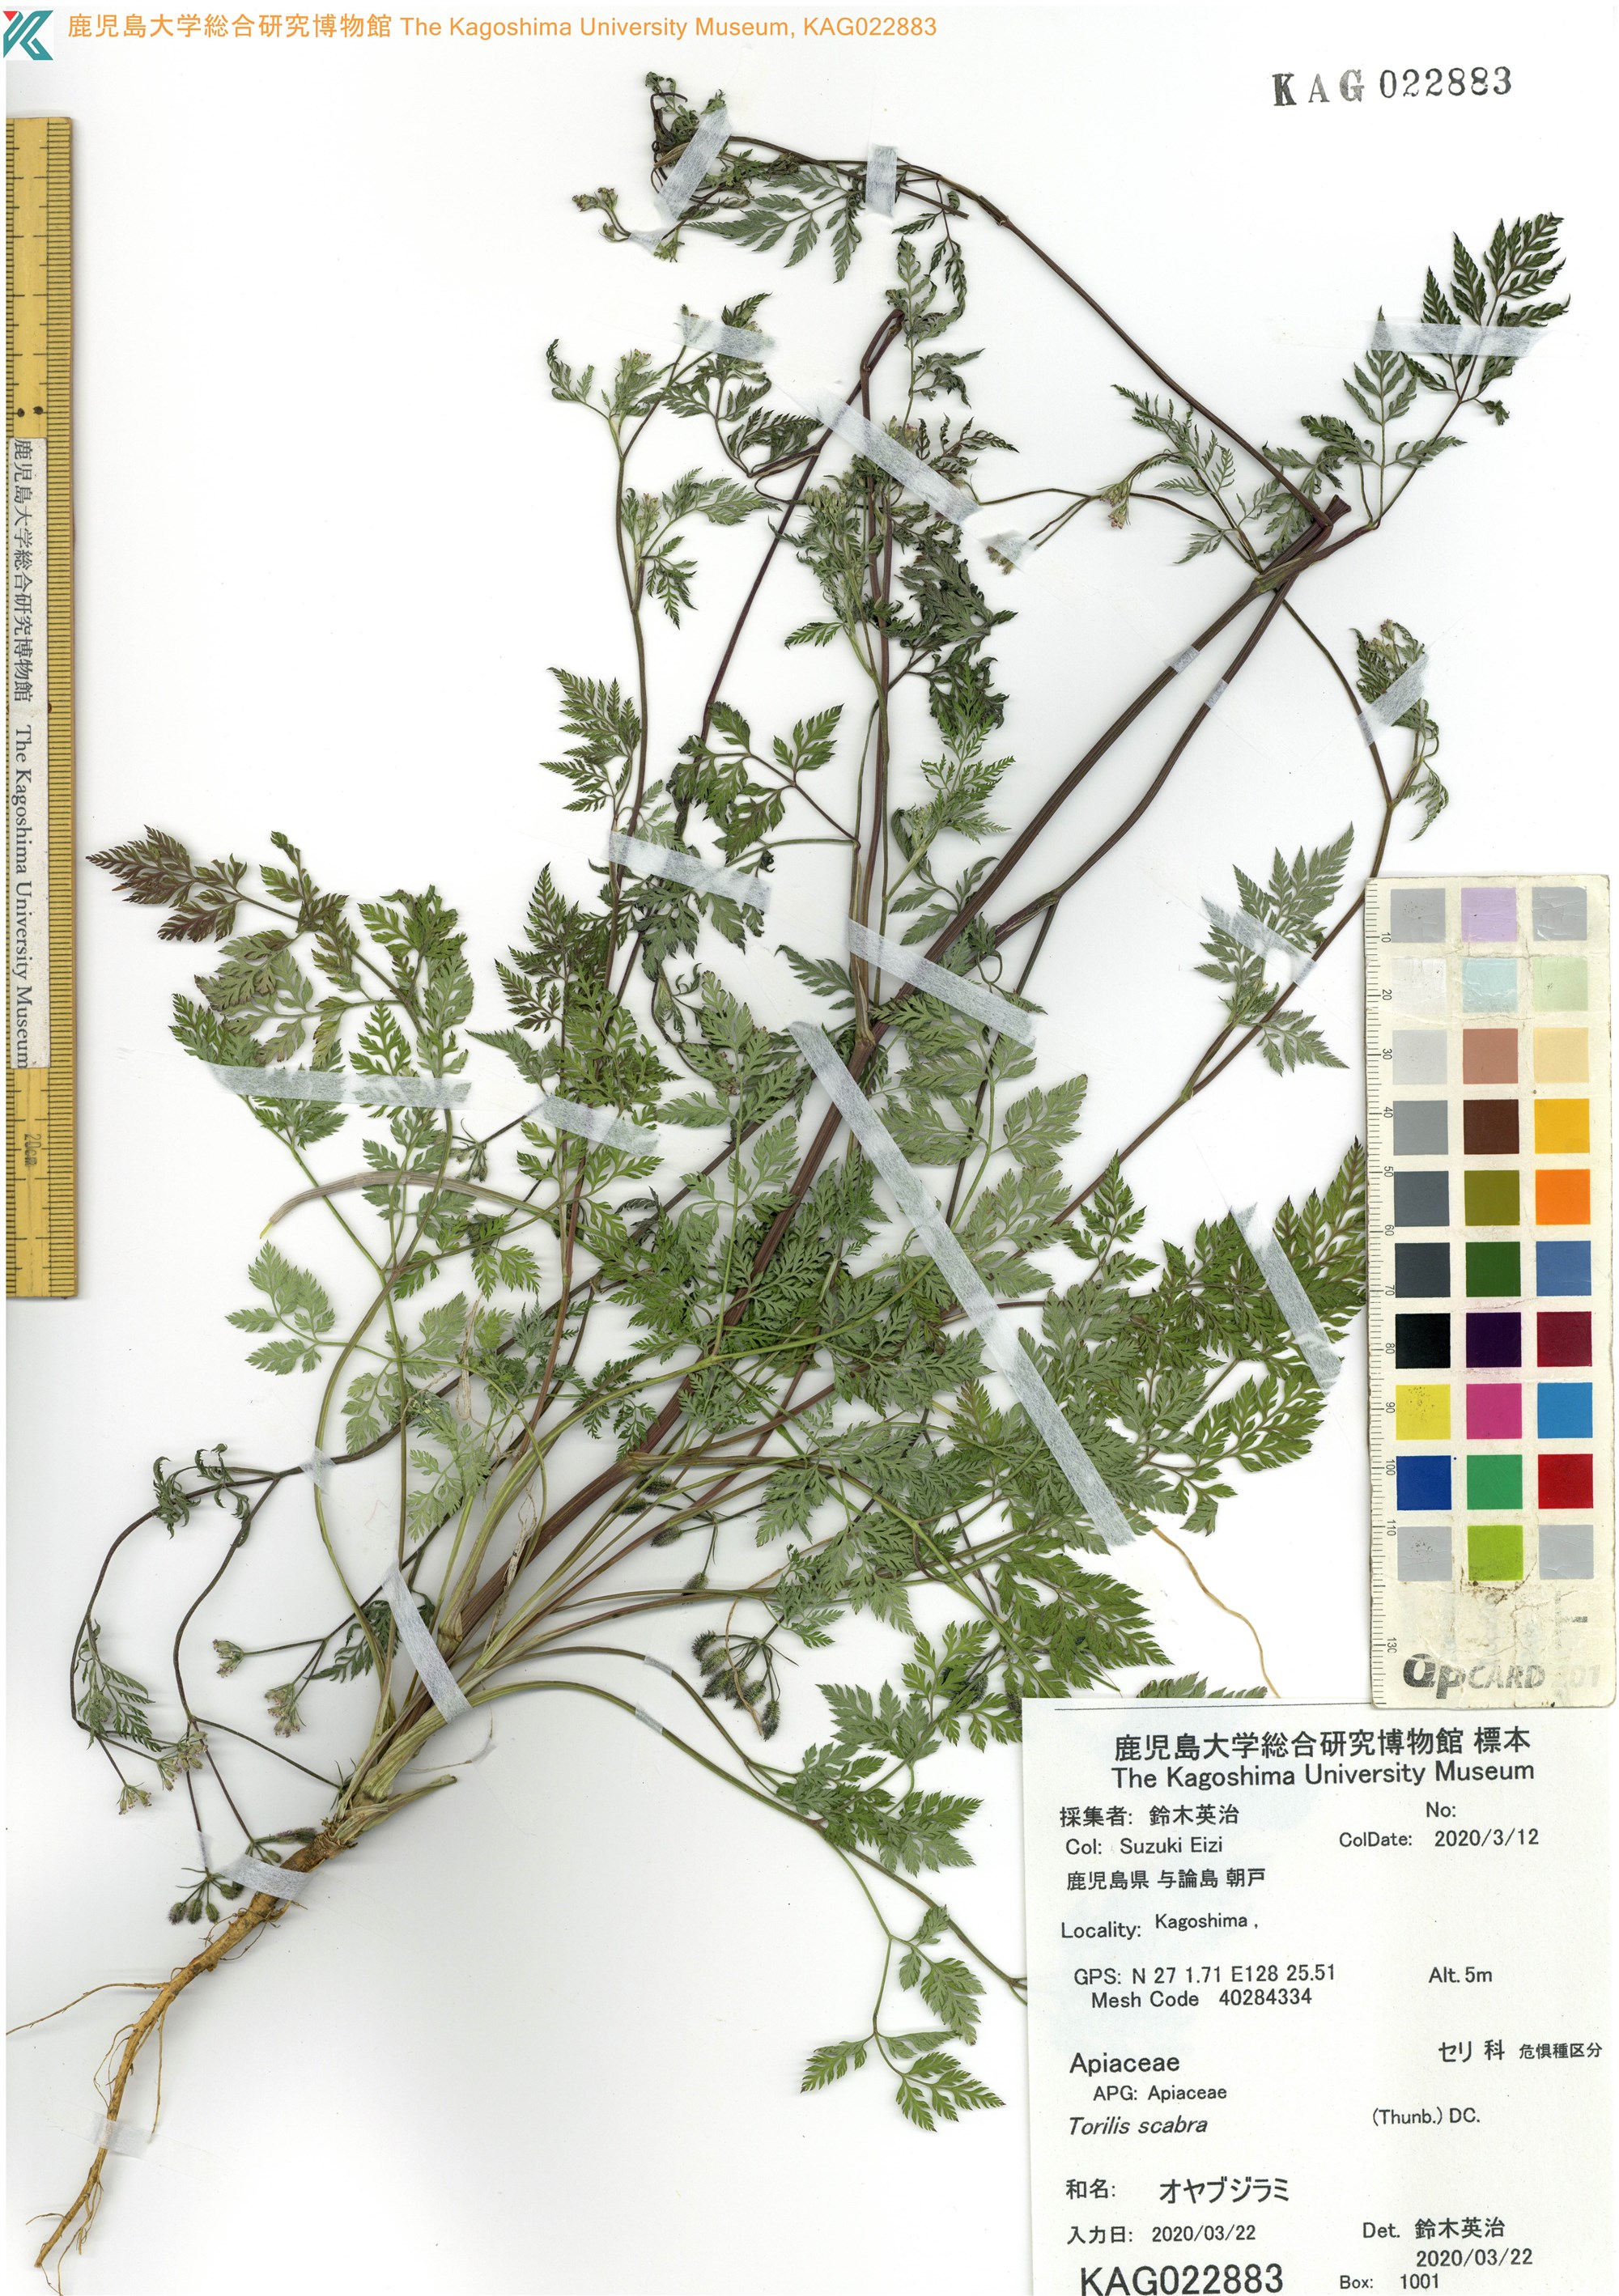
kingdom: Plantae
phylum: Tracheophyta
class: Magnoliopsida
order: Apiales
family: Apiaceae
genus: Torilis
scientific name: Torilis scabra
